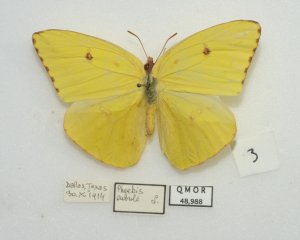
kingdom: Animalia
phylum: Arthropoda
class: Insecta
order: Lepidoptera
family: Pieridae
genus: Phoebis
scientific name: Phoebis sennae
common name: Cloudless Sulphur
